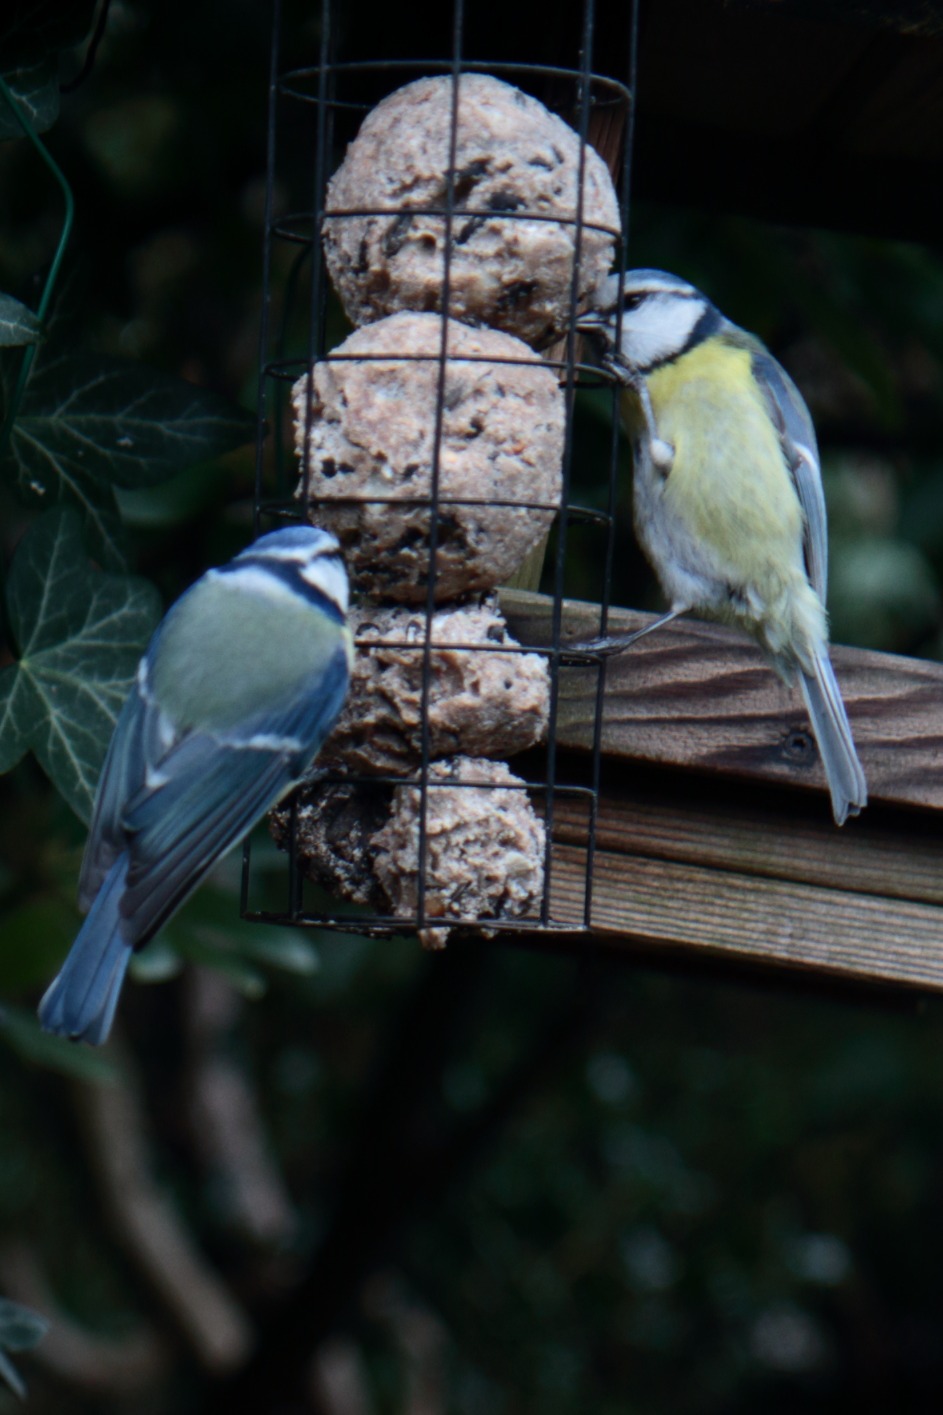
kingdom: Animalia
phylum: Chordata
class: Aves
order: Passeriformes
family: Paridae
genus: Cyanistes
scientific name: Cyanistes caeruleus
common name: Blåmejse
